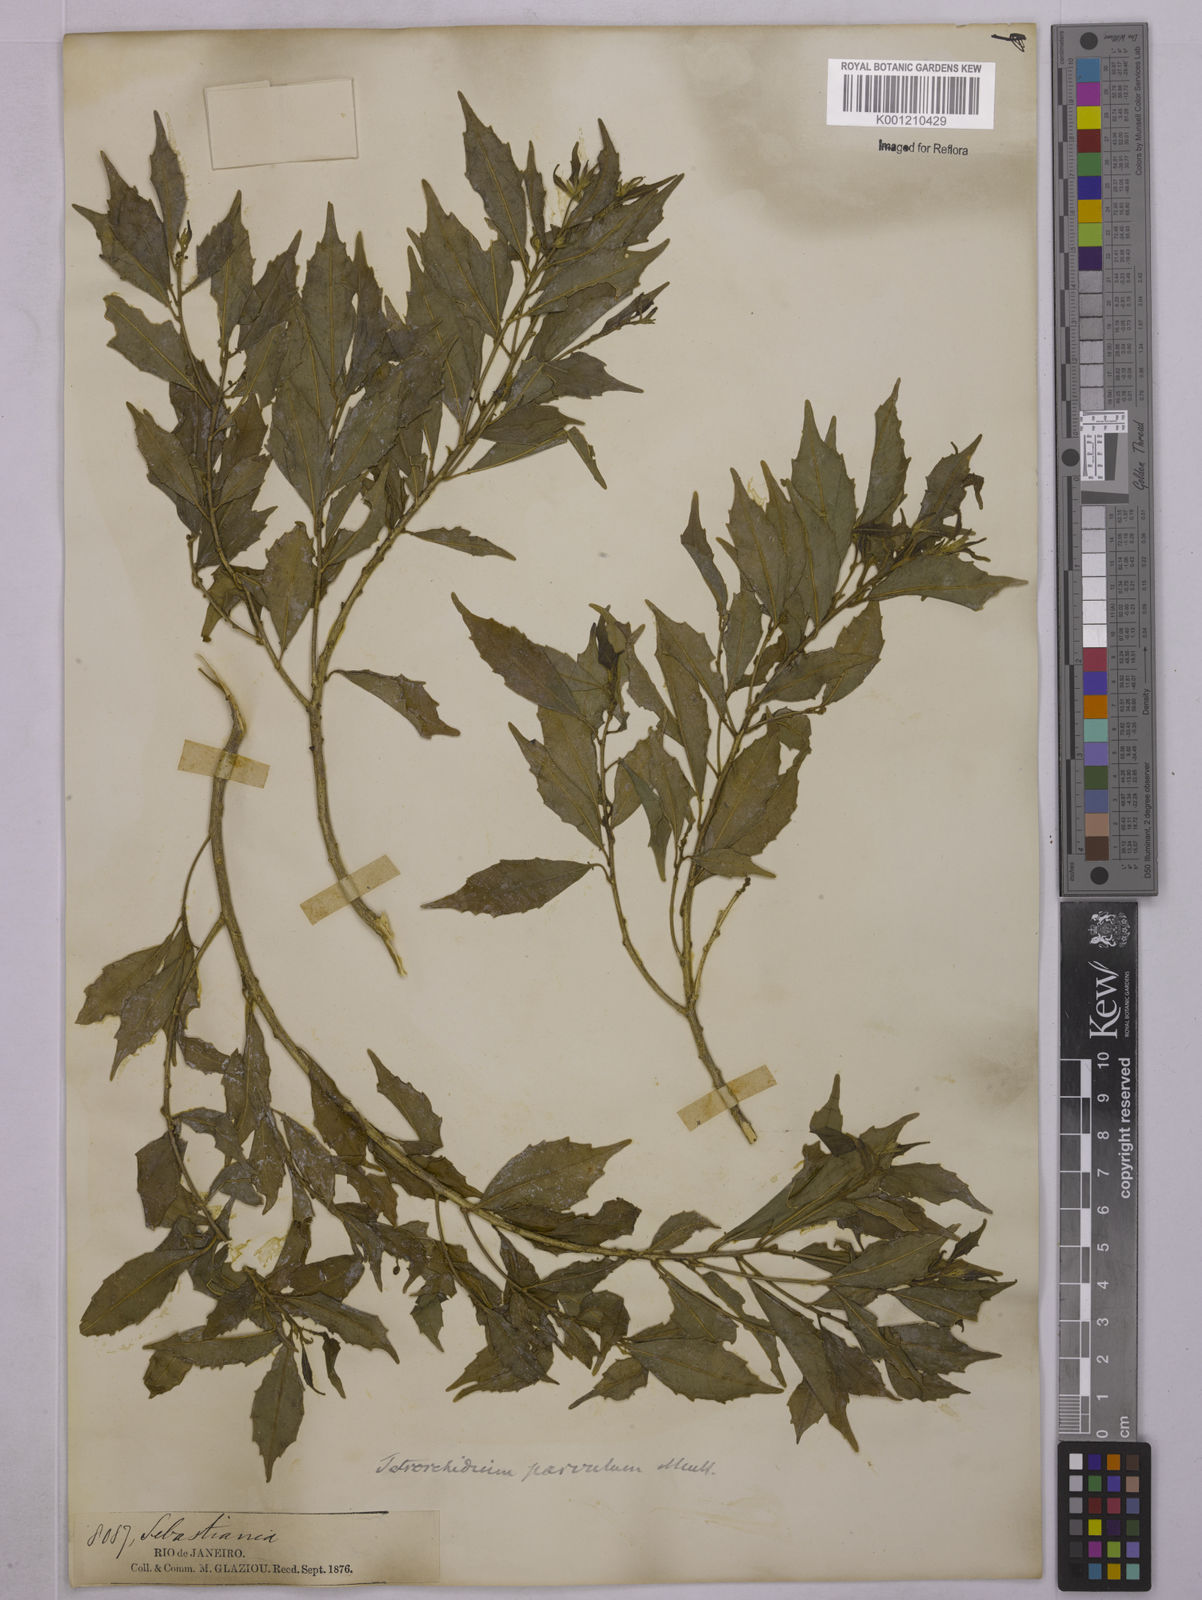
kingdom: Plantae
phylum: Tracheophyta
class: Magnoliopsida
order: Malpighiales
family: Euphorbiaceae
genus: Tetrorchidium
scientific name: Tetrorchidium
